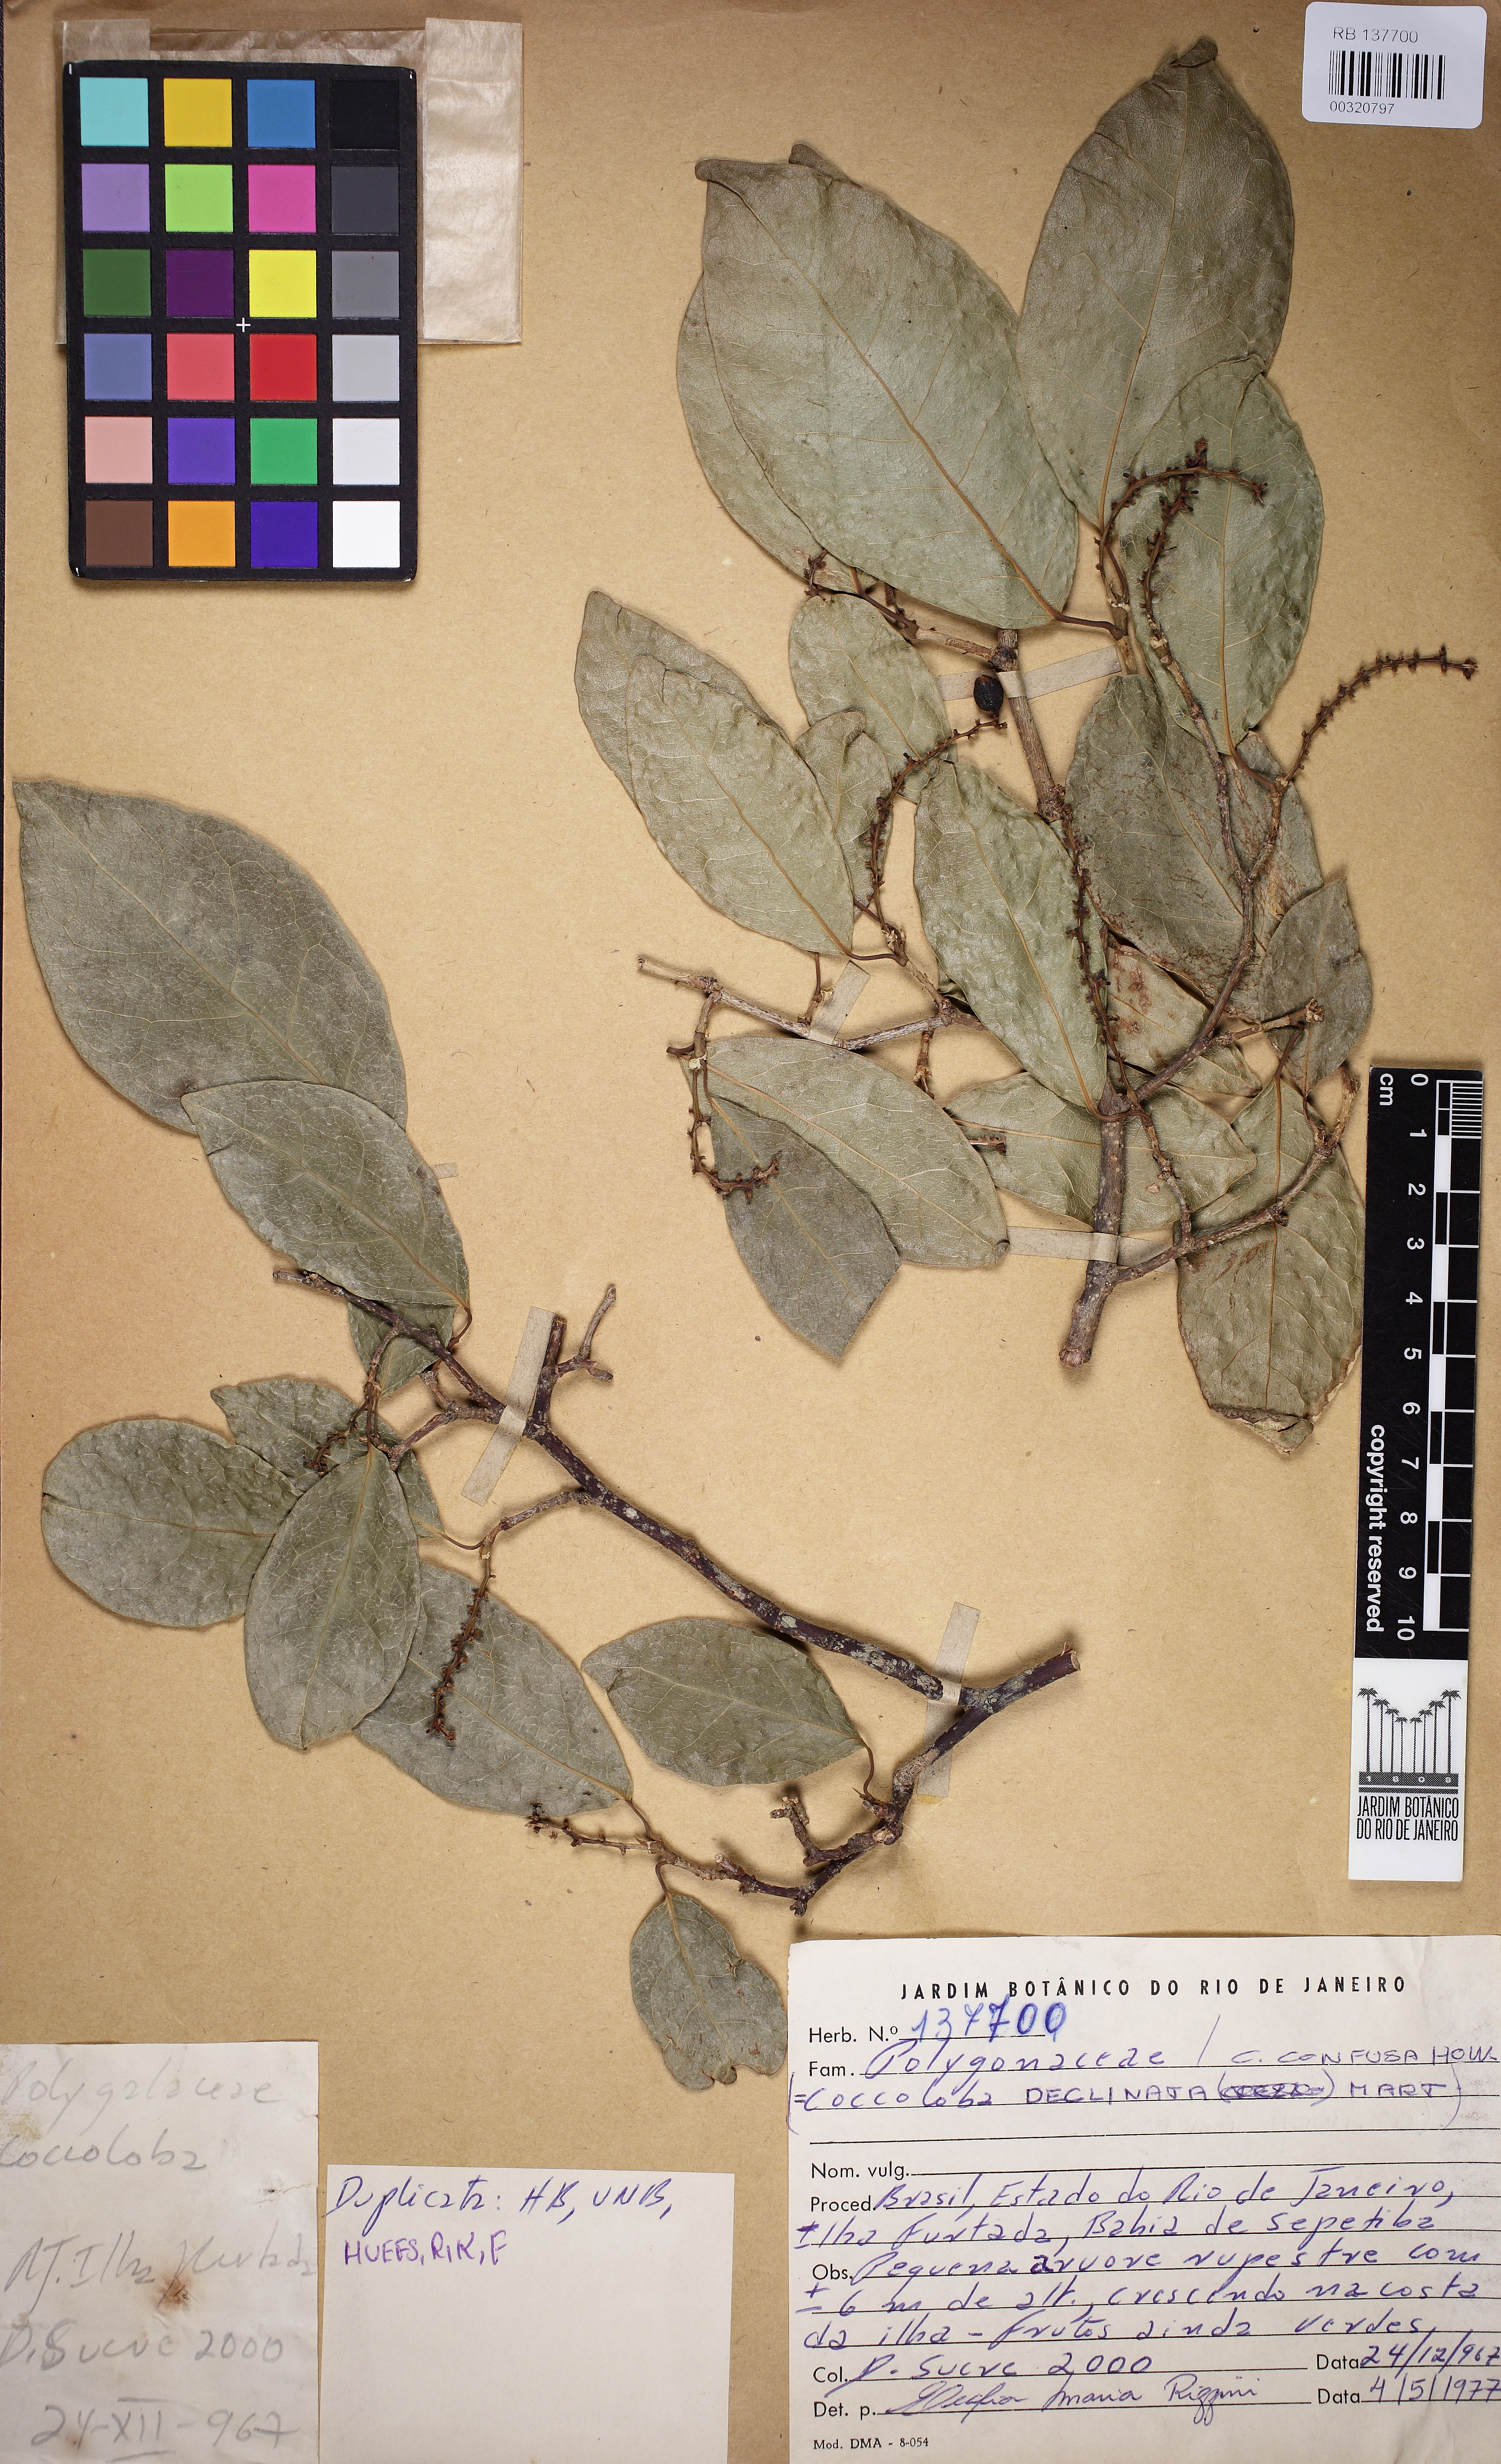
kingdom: Plantae
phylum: Tracheophyta
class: Magnoliopsida
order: Caryophyllales
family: Polygonaceae
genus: Coccoloba
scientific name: Coccoloba declinata
